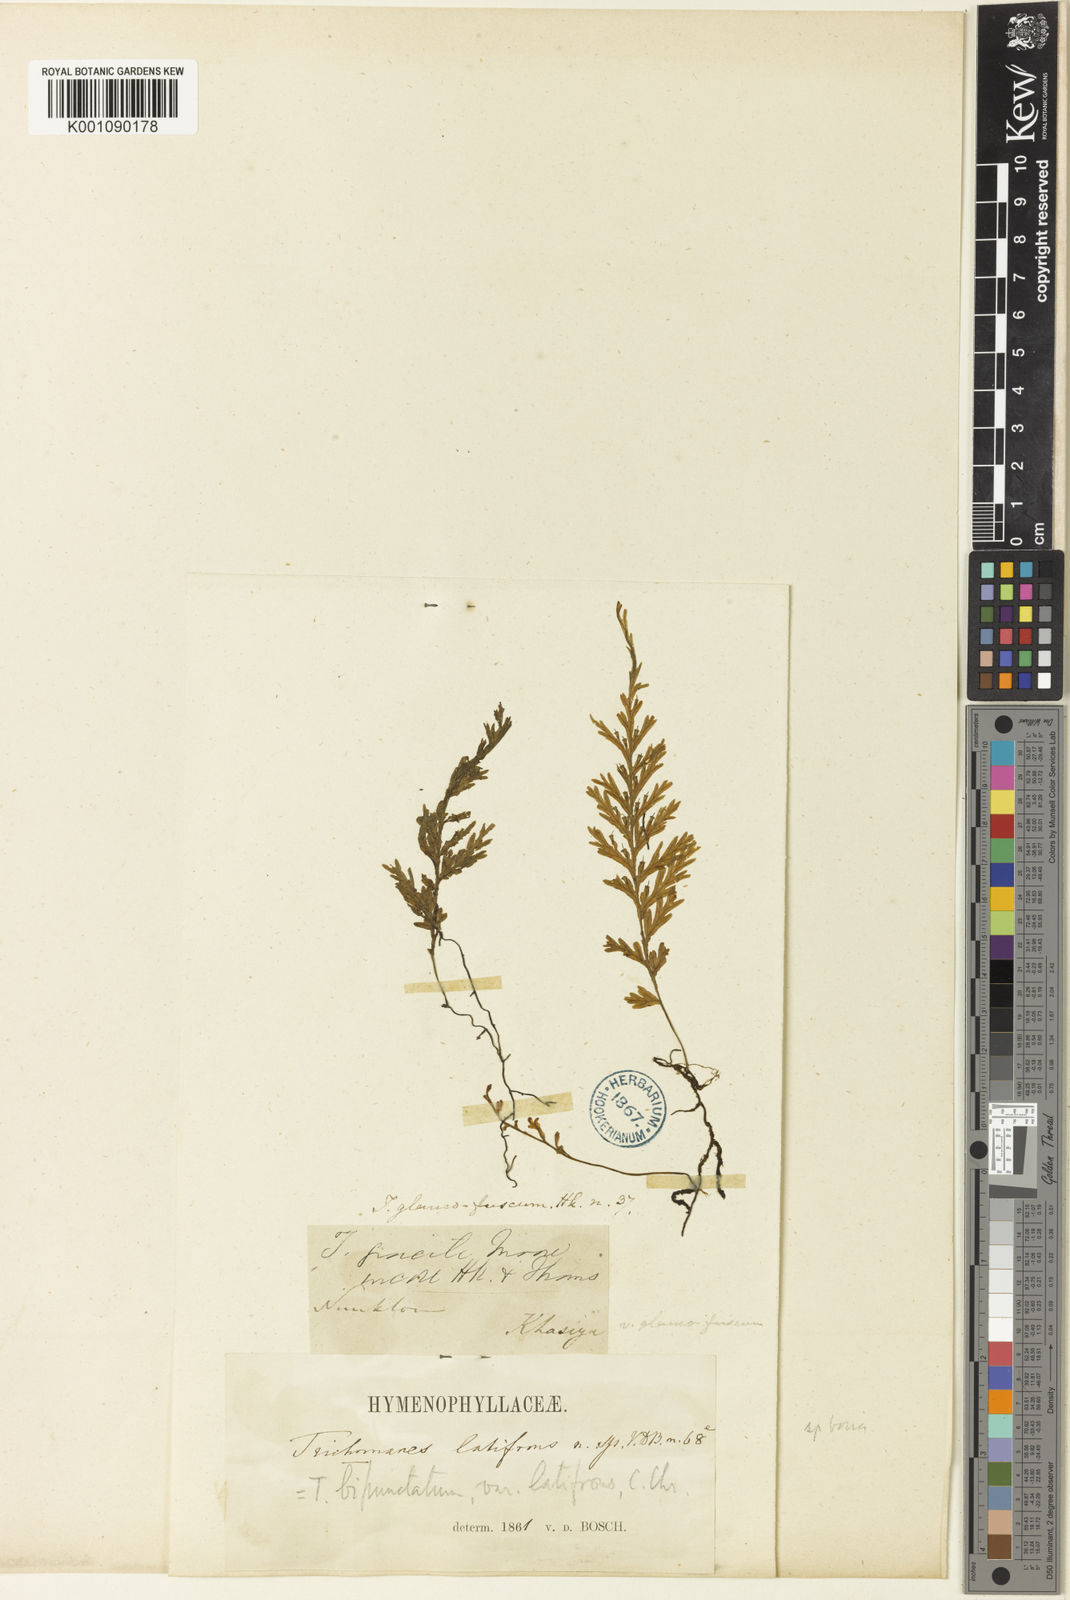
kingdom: Plantae
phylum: Tracheophyta
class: Polypodiopsida
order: Hymenophyllales
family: Hymenophyllaceae
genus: Crepidomanes
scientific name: Crepidomanes schmidianum
